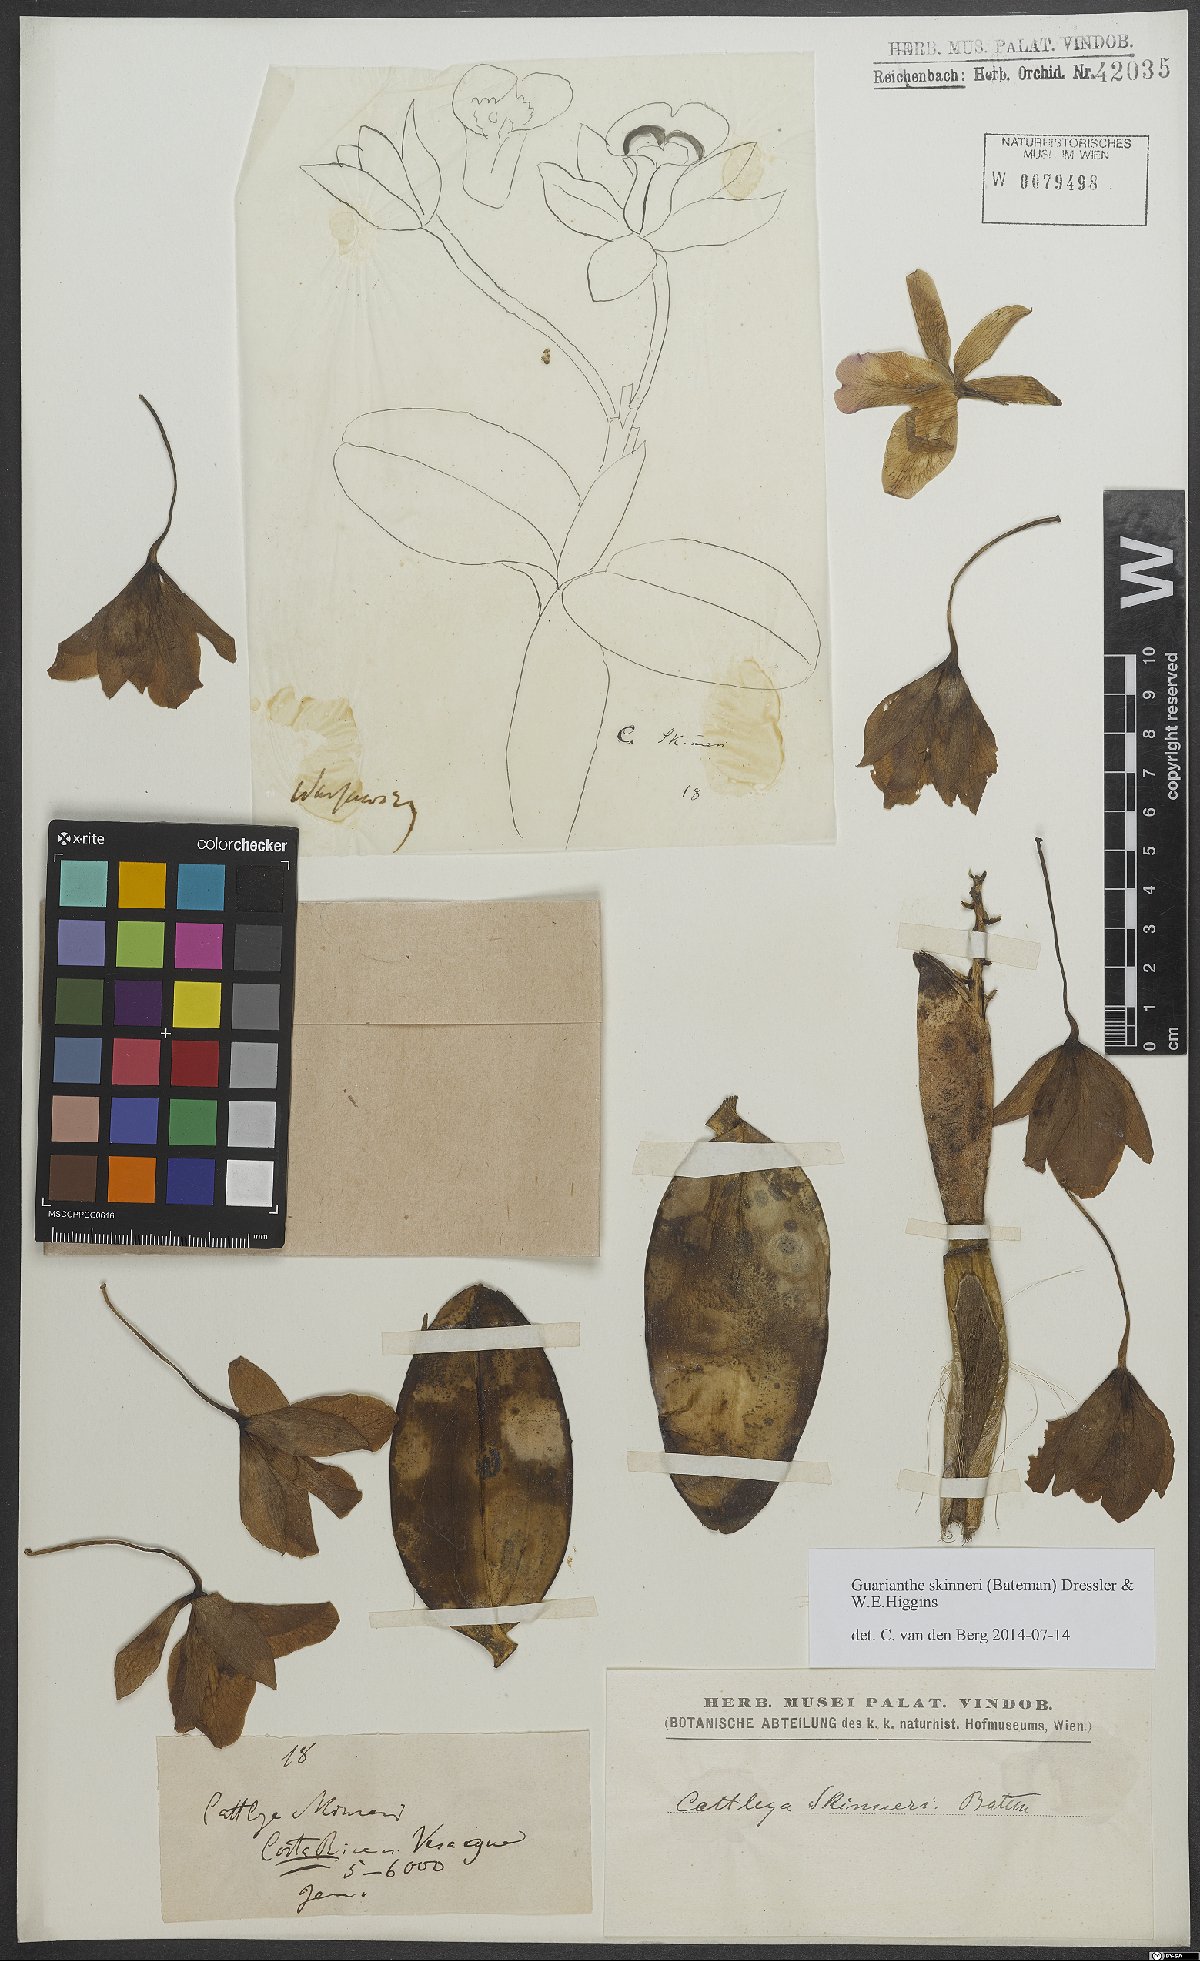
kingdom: Plantae
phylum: Tracheophyta
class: Liliopsida
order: Asparagales
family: Orchidaceae
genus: Guarianthe
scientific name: Guarianthe skinneri
